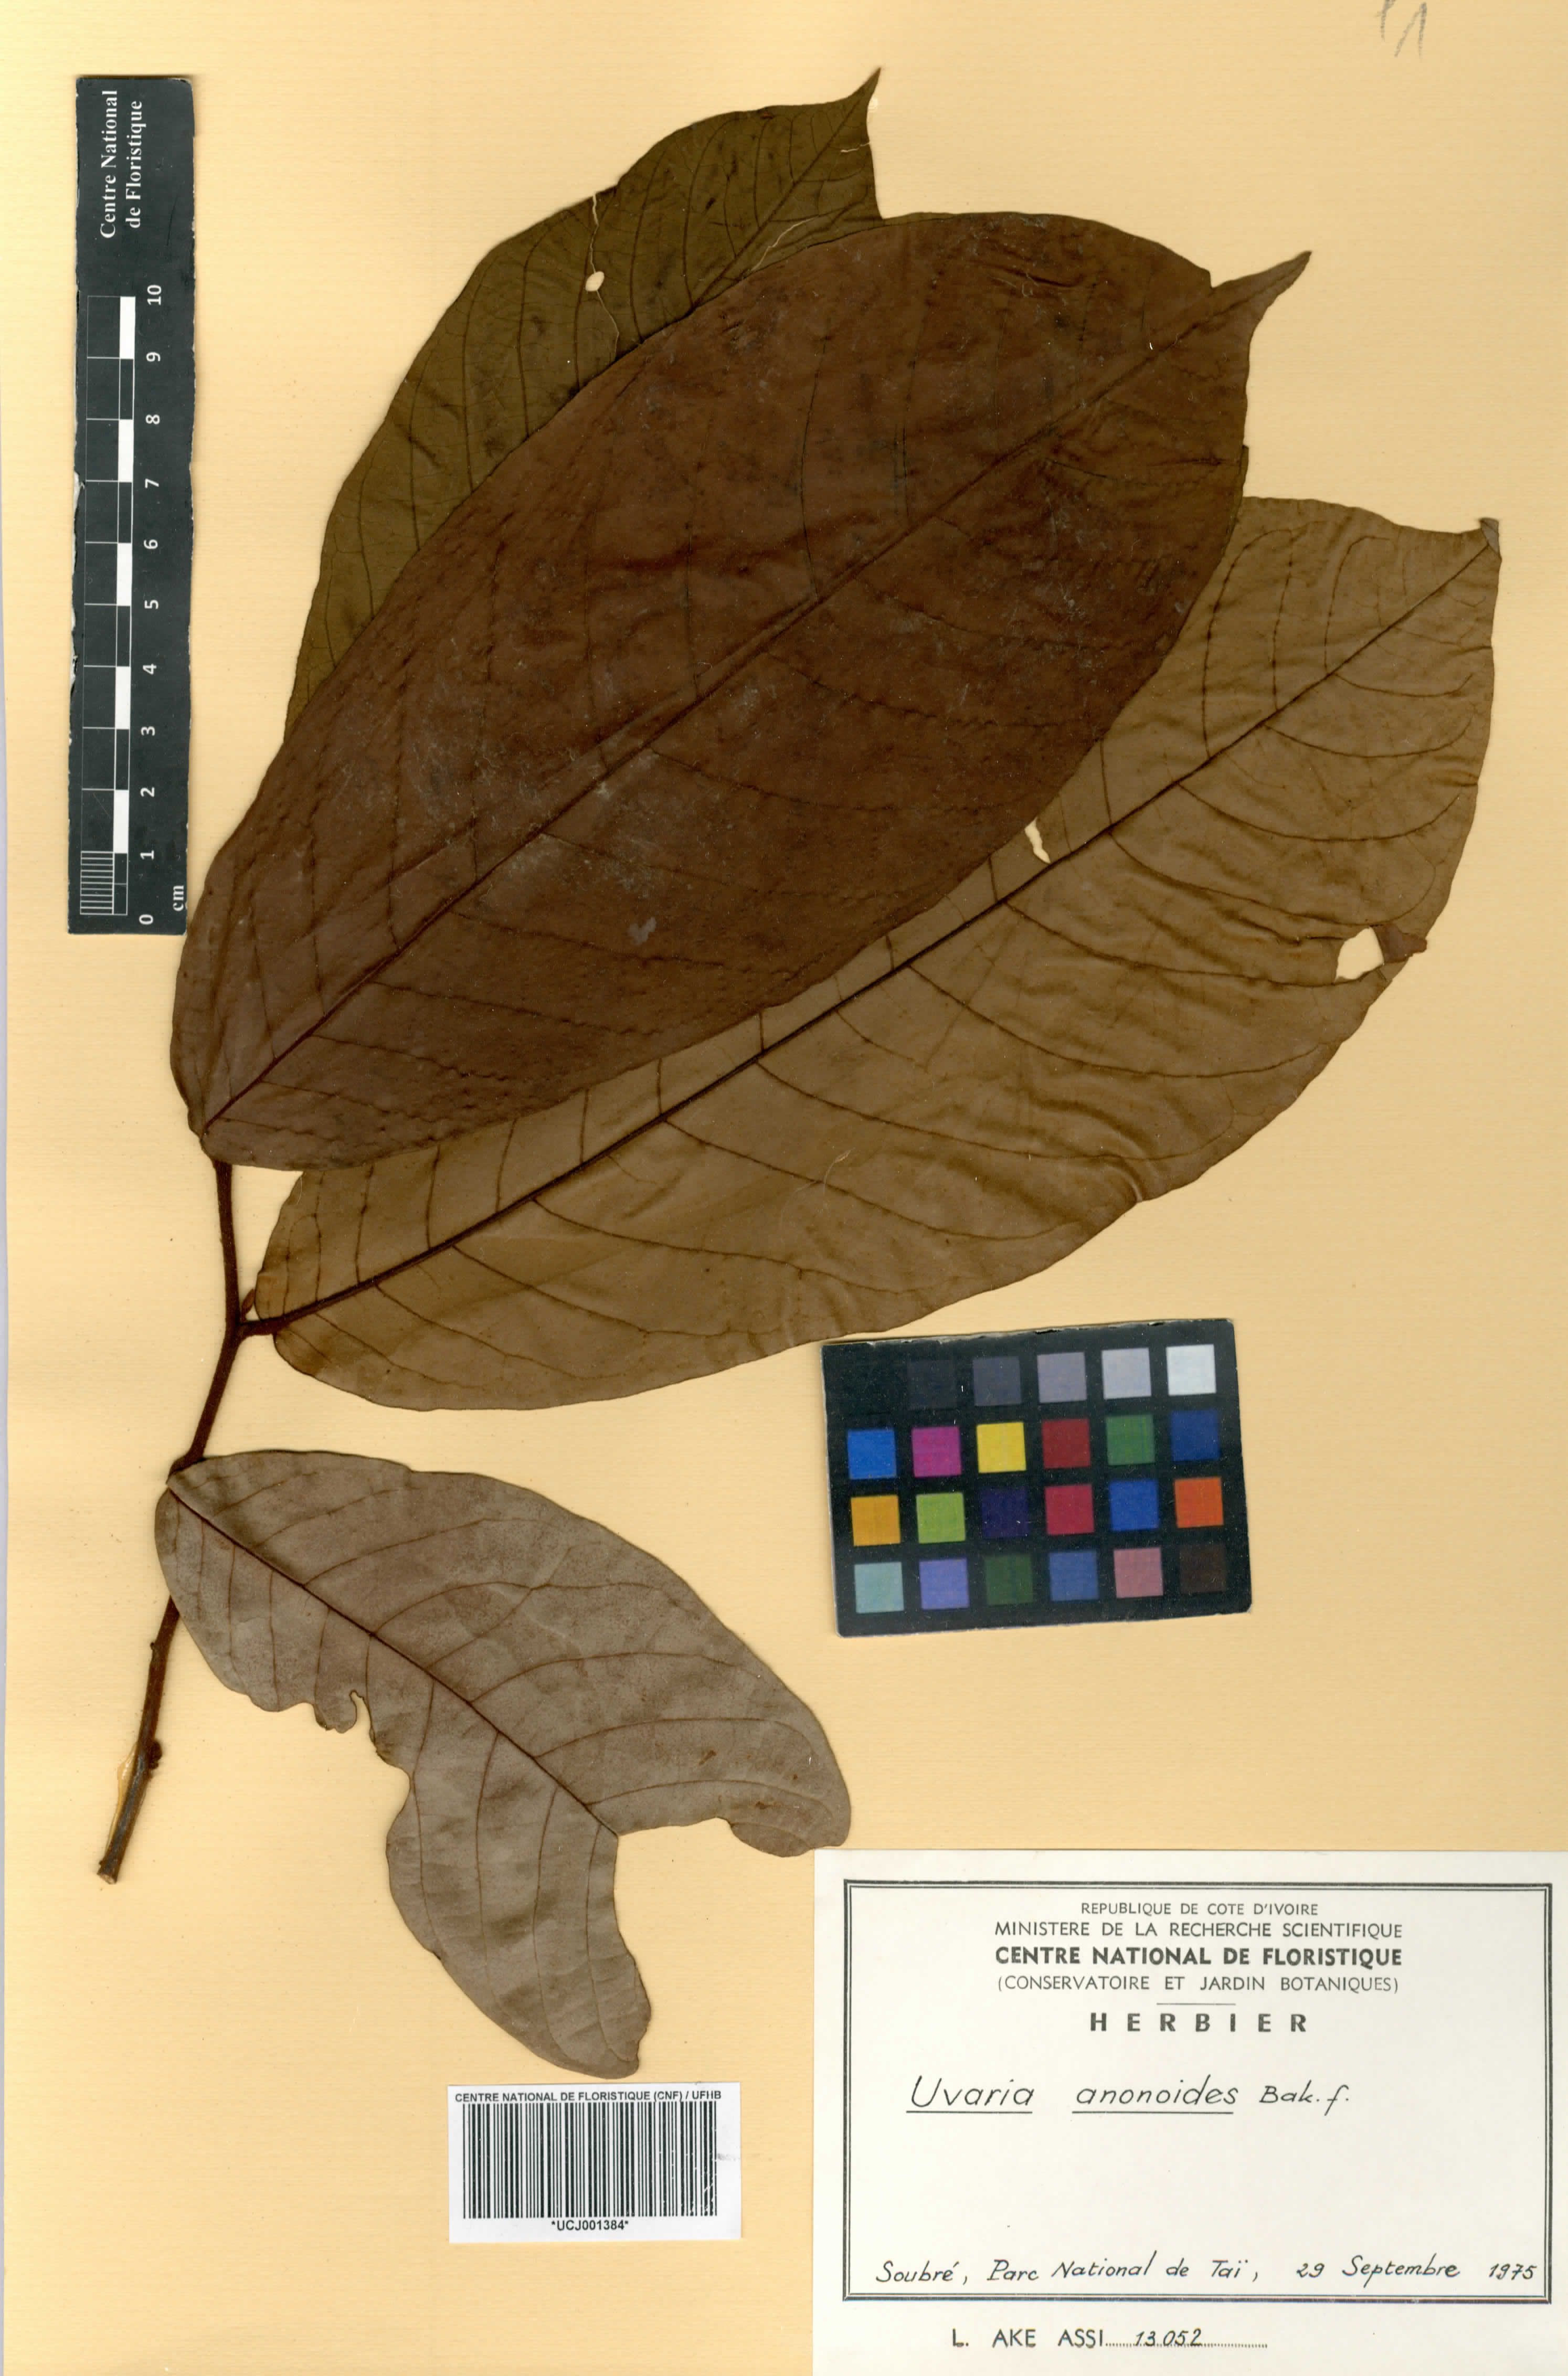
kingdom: Plantae
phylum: Tracheophyta
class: Magnoliopsida
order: Magnoliales
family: Annonaceae
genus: Uvaria
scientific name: Uvaria anonoides
